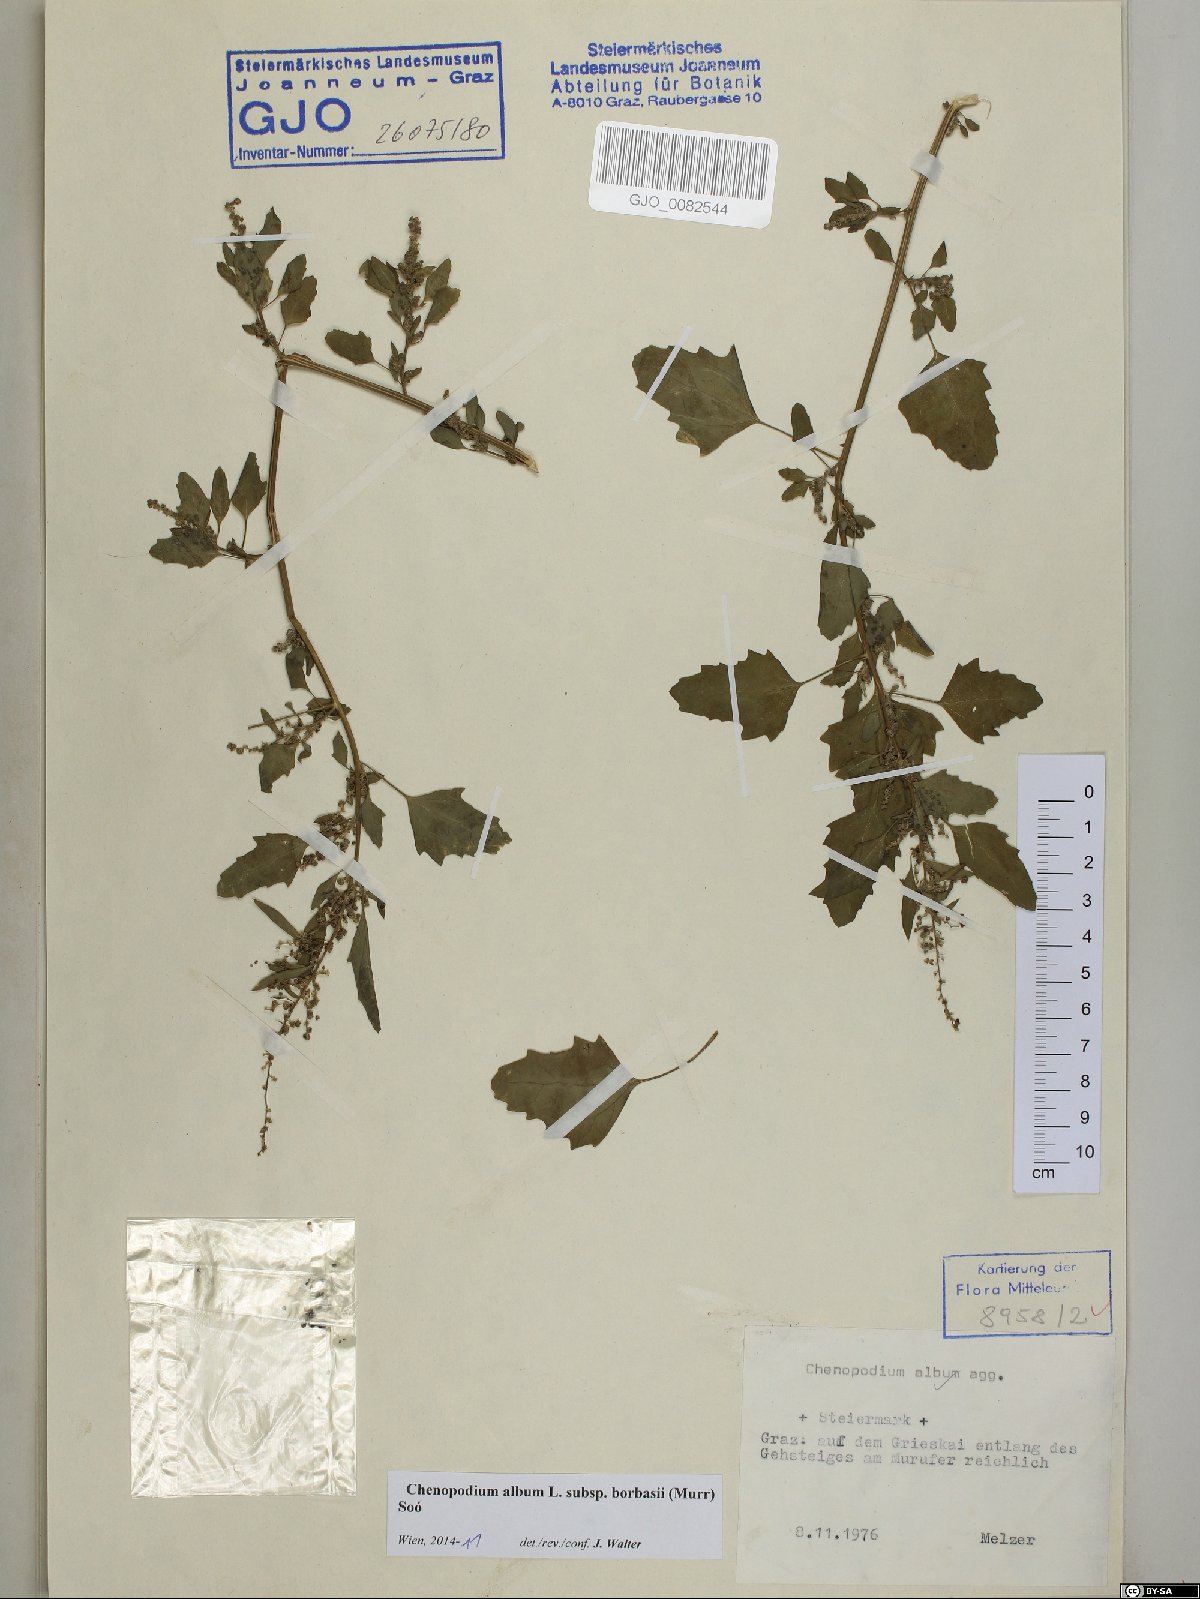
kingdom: Plantae
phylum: Tracheophyta
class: Magnoliopsida
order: Caryophyllales
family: Amaranthaceae
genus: Chenopodium
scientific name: Chenopodium borbasii
